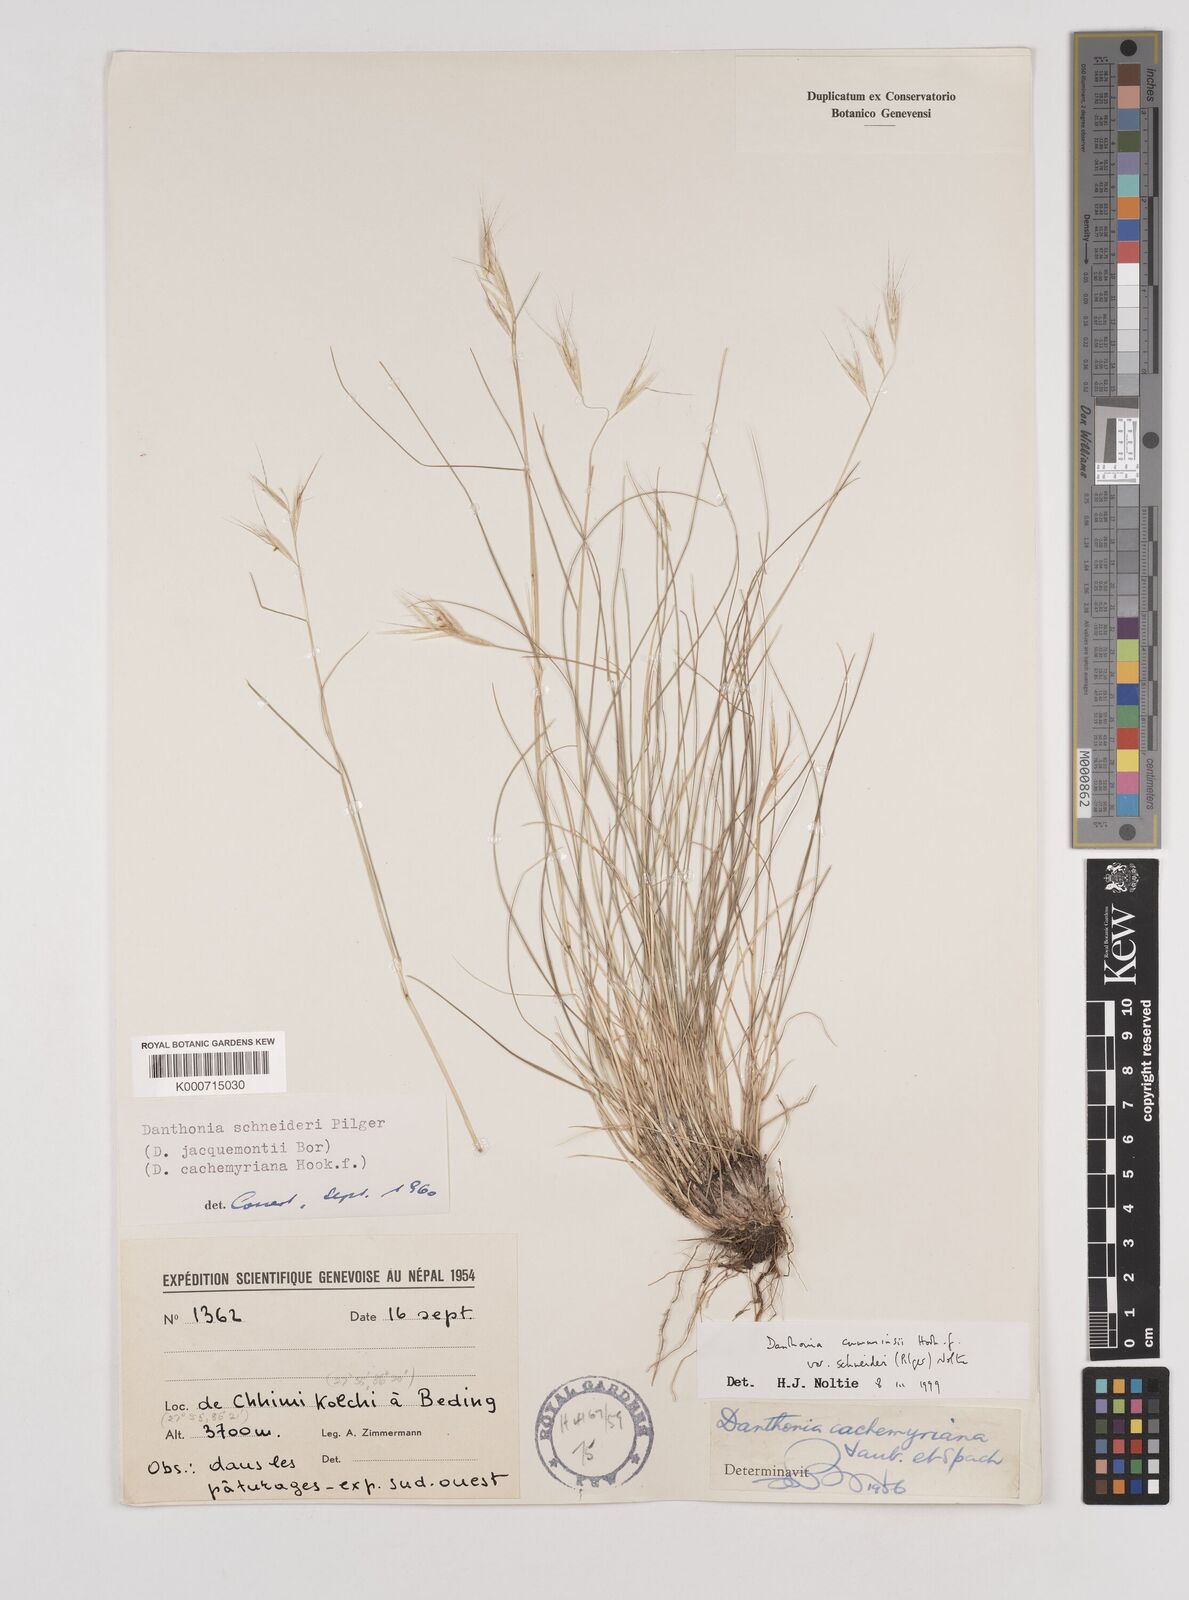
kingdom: Plantae
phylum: Tracheophyta
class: Liliopsida
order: Poales
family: Poaceae
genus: Rytidosperma
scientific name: Rytidosperma
